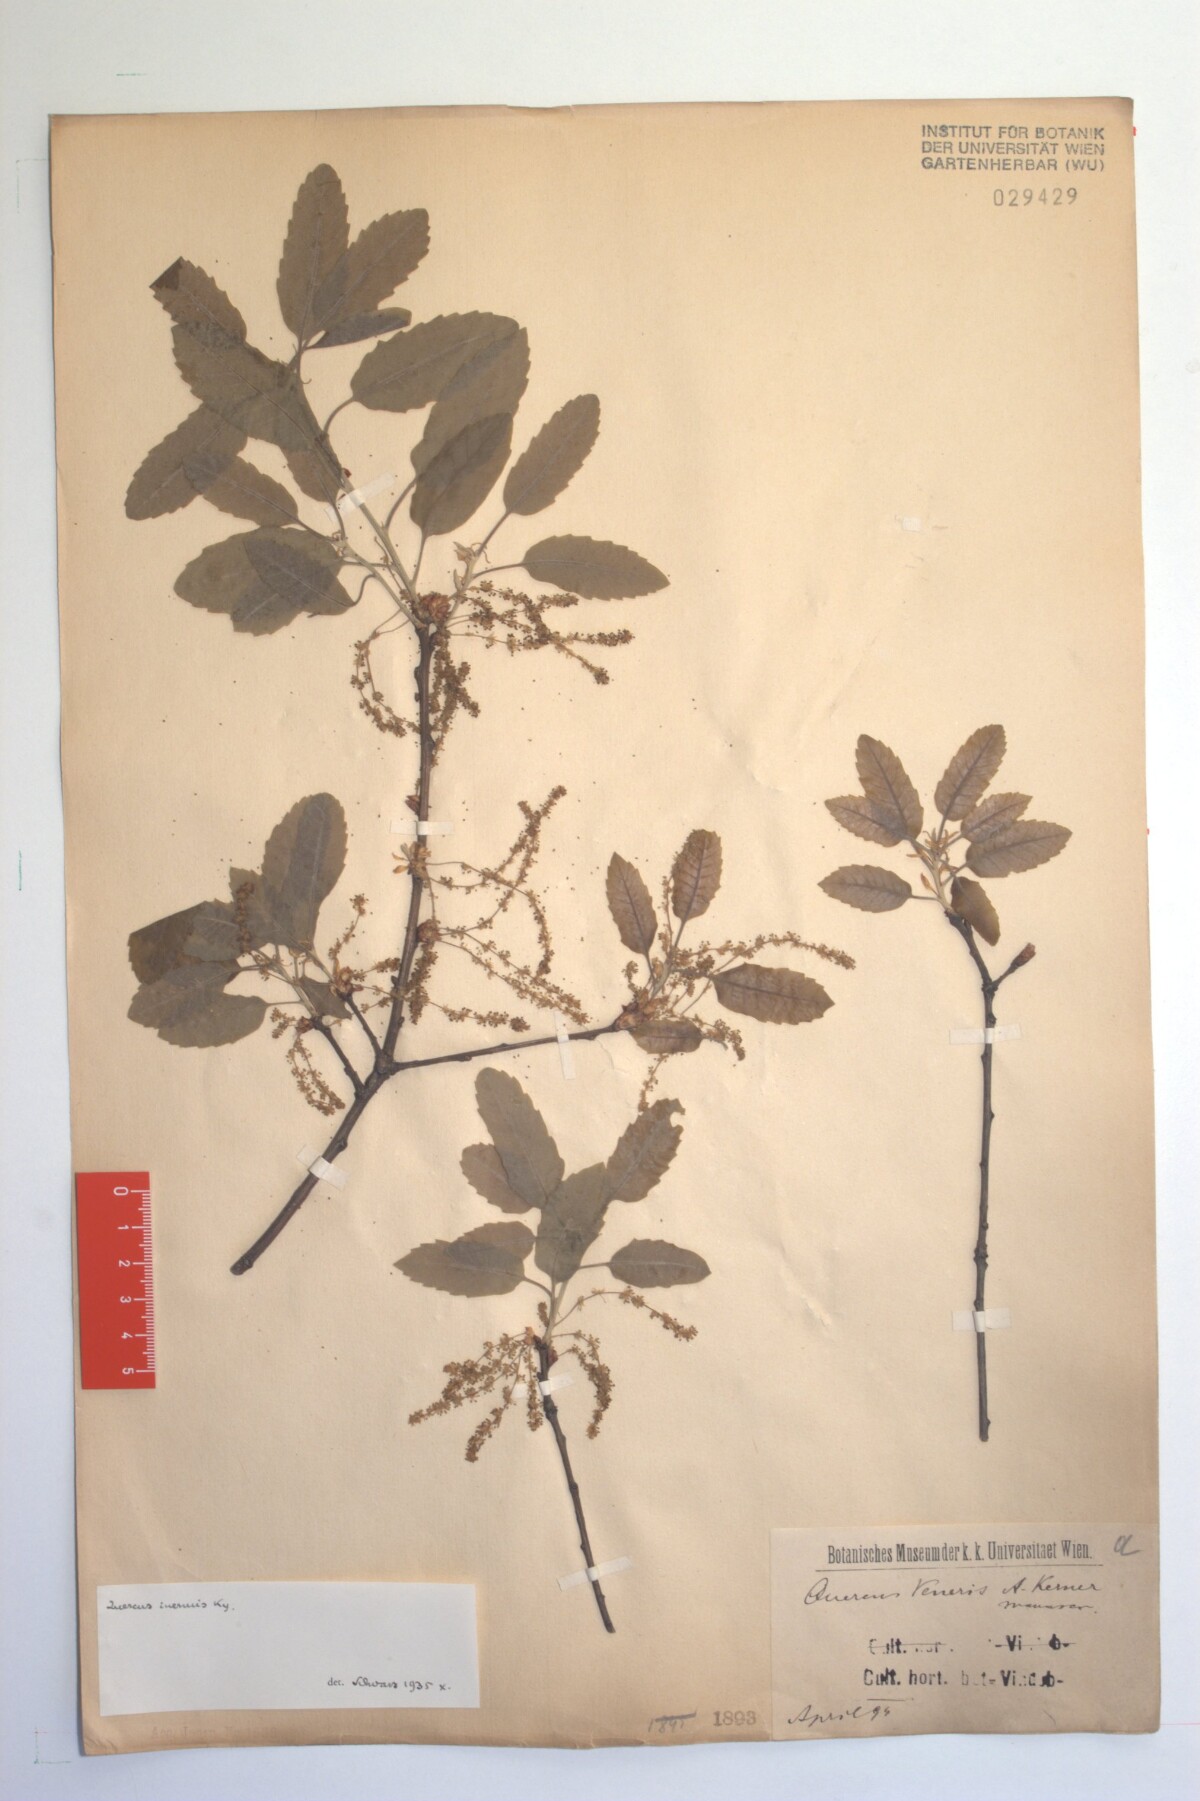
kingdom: Plantae
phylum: Tracheophyta
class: Magnoliopsida
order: Fagales
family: Fagaceae
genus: Quercus
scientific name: Quercus infectoria
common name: Aleppo oak
